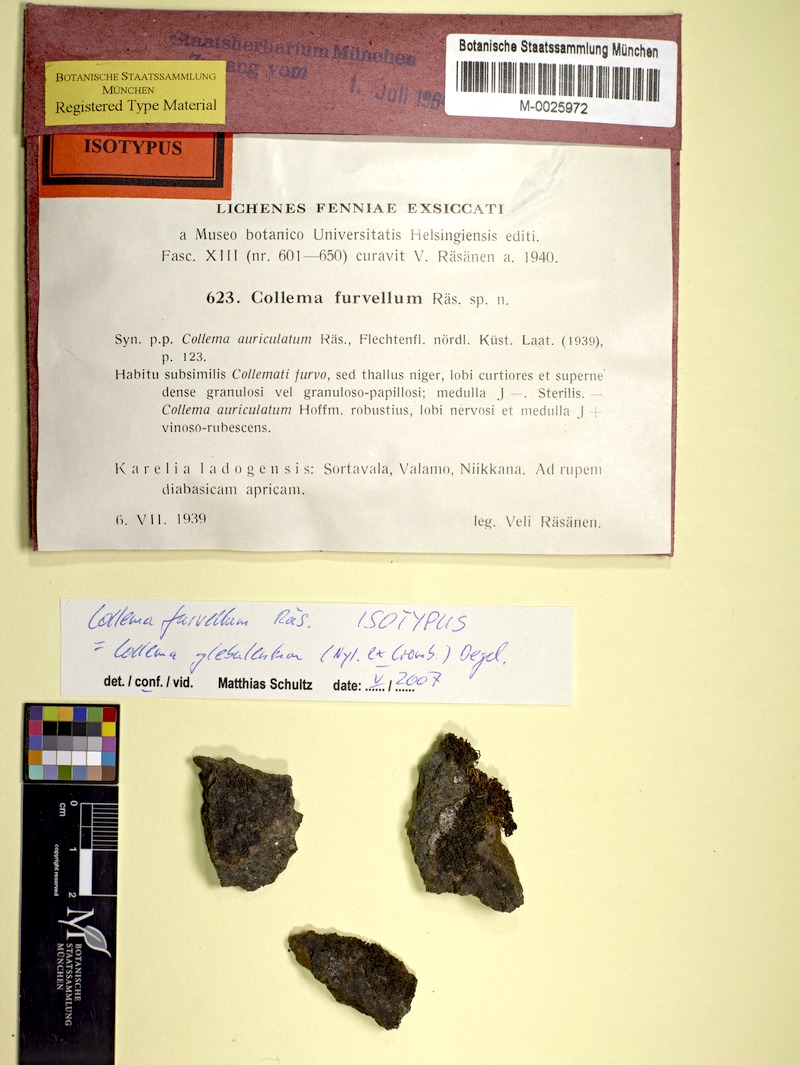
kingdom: Fungi
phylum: Ascomycota
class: Lecanoromycetes
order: Peltigerales
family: Collemataceae
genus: Collema
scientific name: Collema glebulentum
